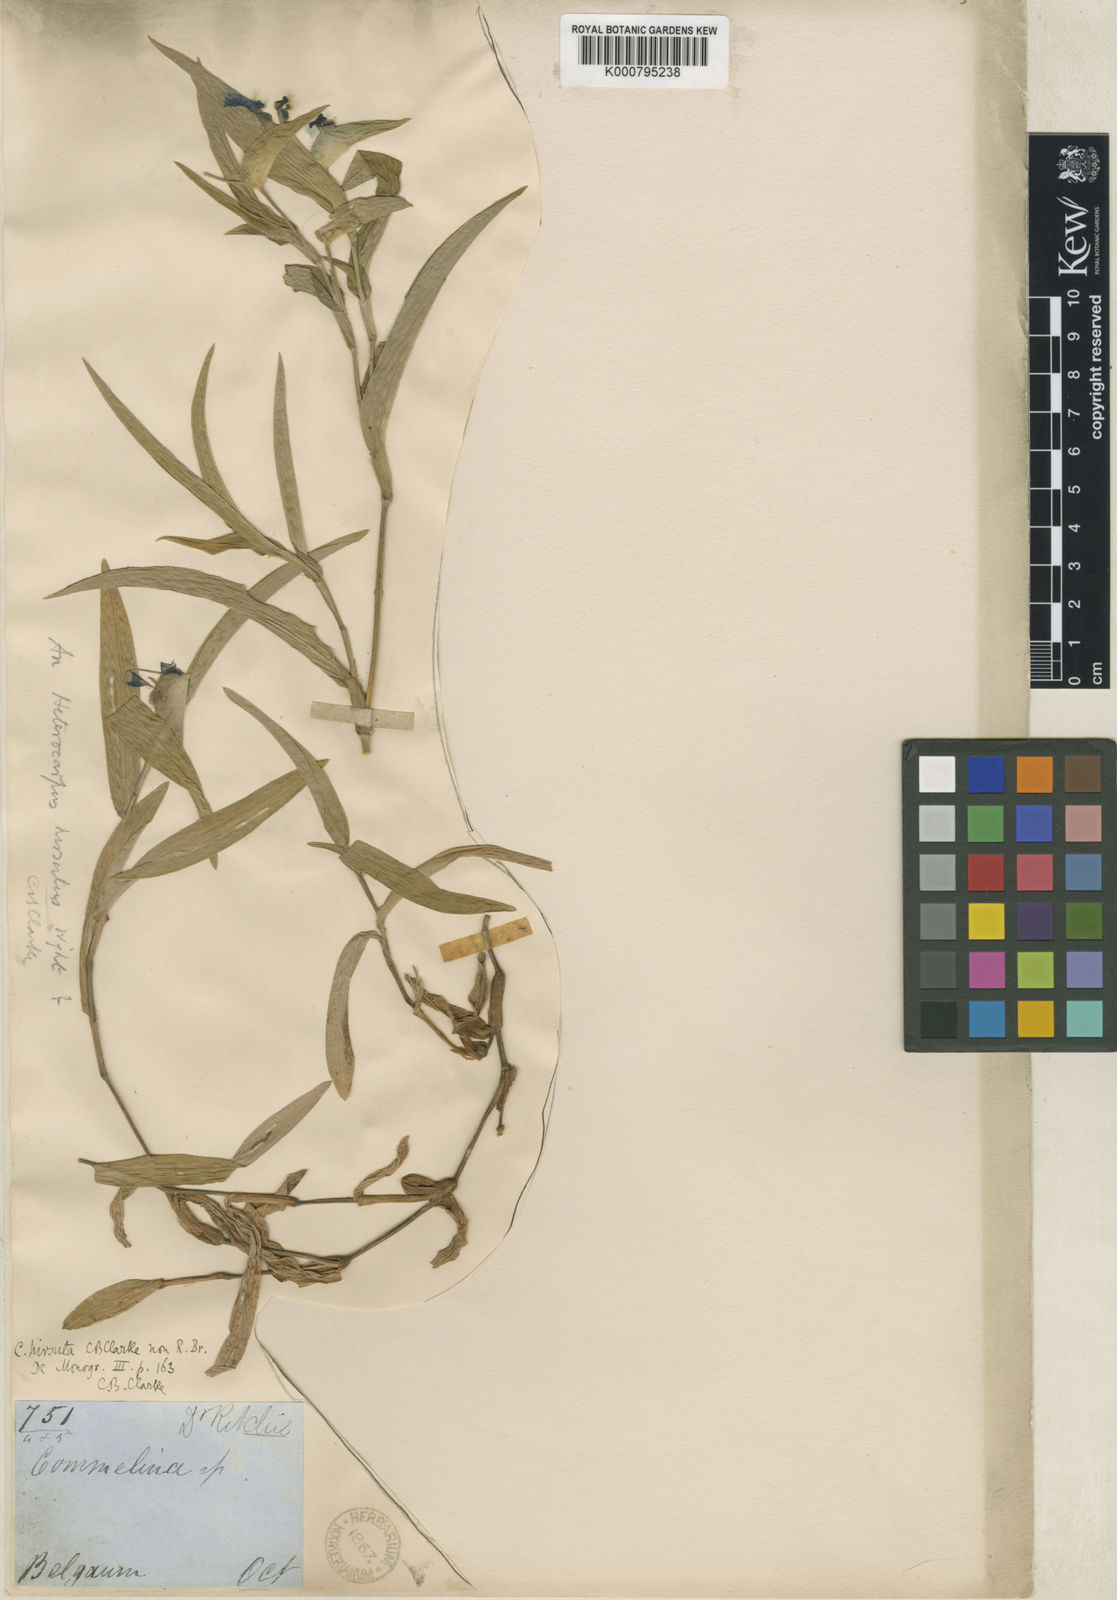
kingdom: Plantae
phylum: Tracheophyta
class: Liliopsida
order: Commelinales
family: Commelinaceae
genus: Commelina
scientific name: Commelina benghalensis
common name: Jio
